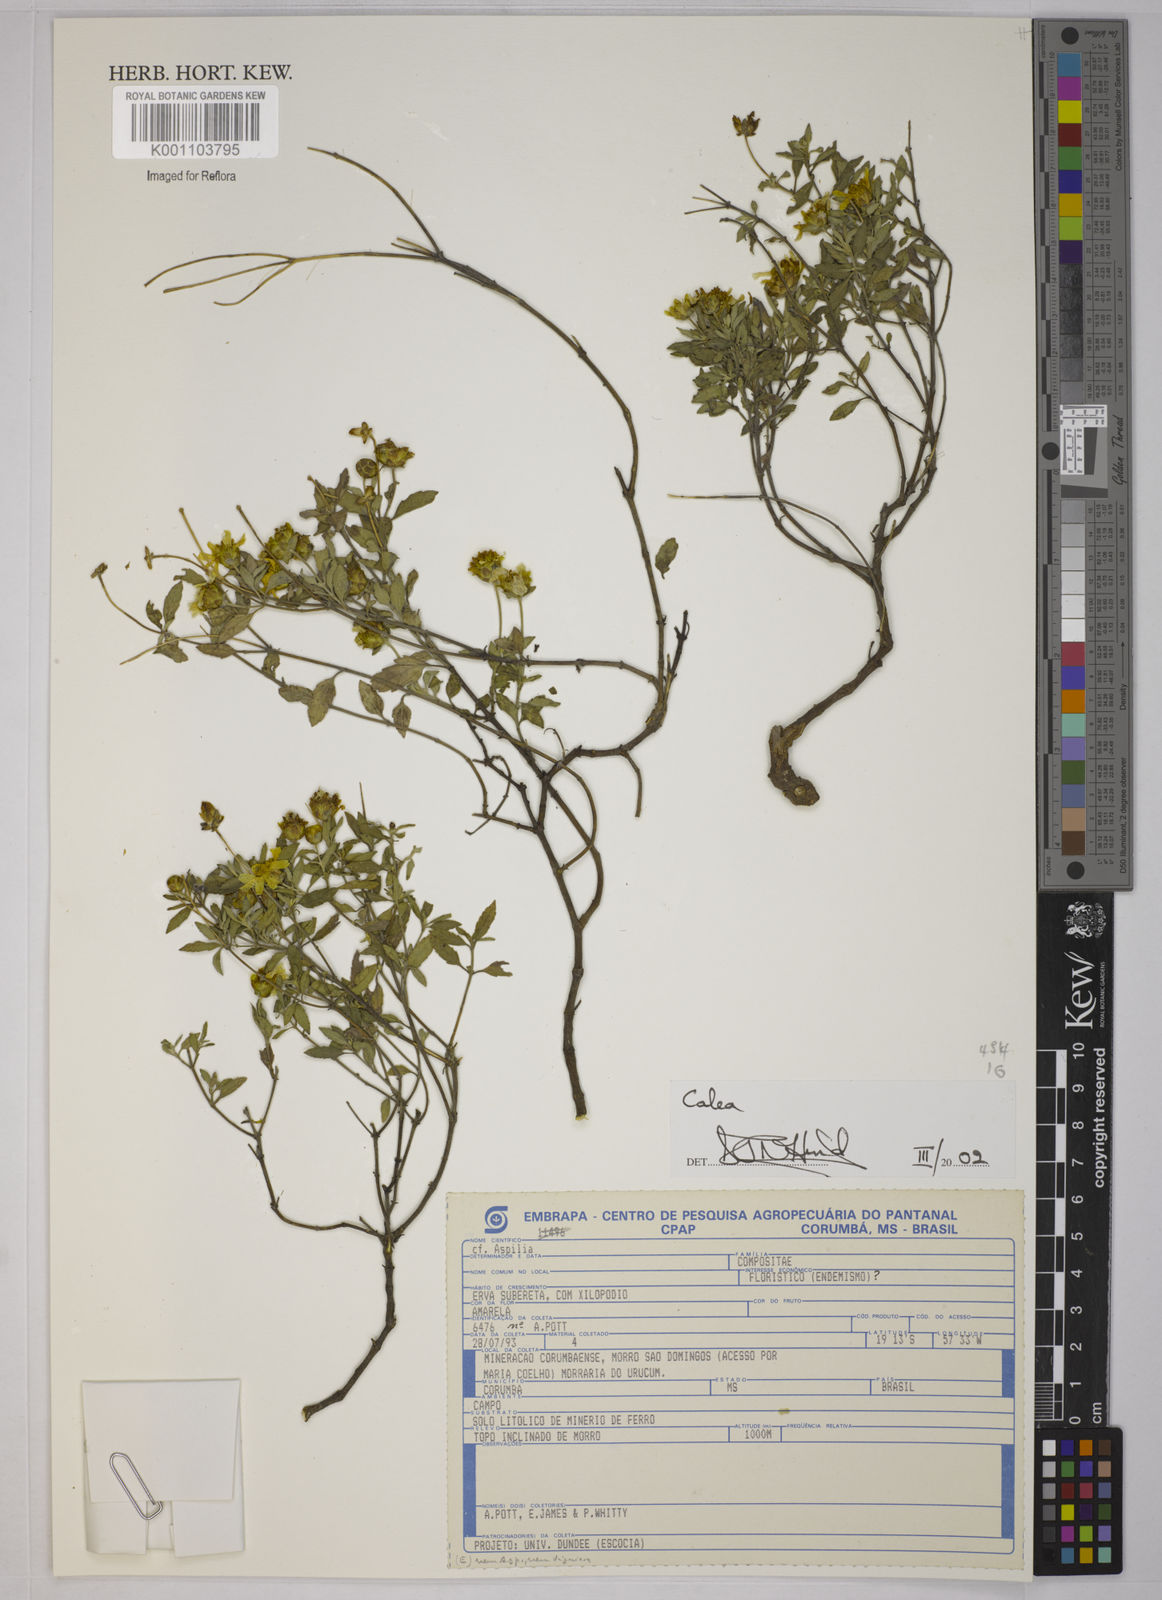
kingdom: Plantae
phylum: Tracheophyta
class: Magnoliopsida
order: Asterales
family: Asteraceae
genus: Calea
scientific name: Calea
